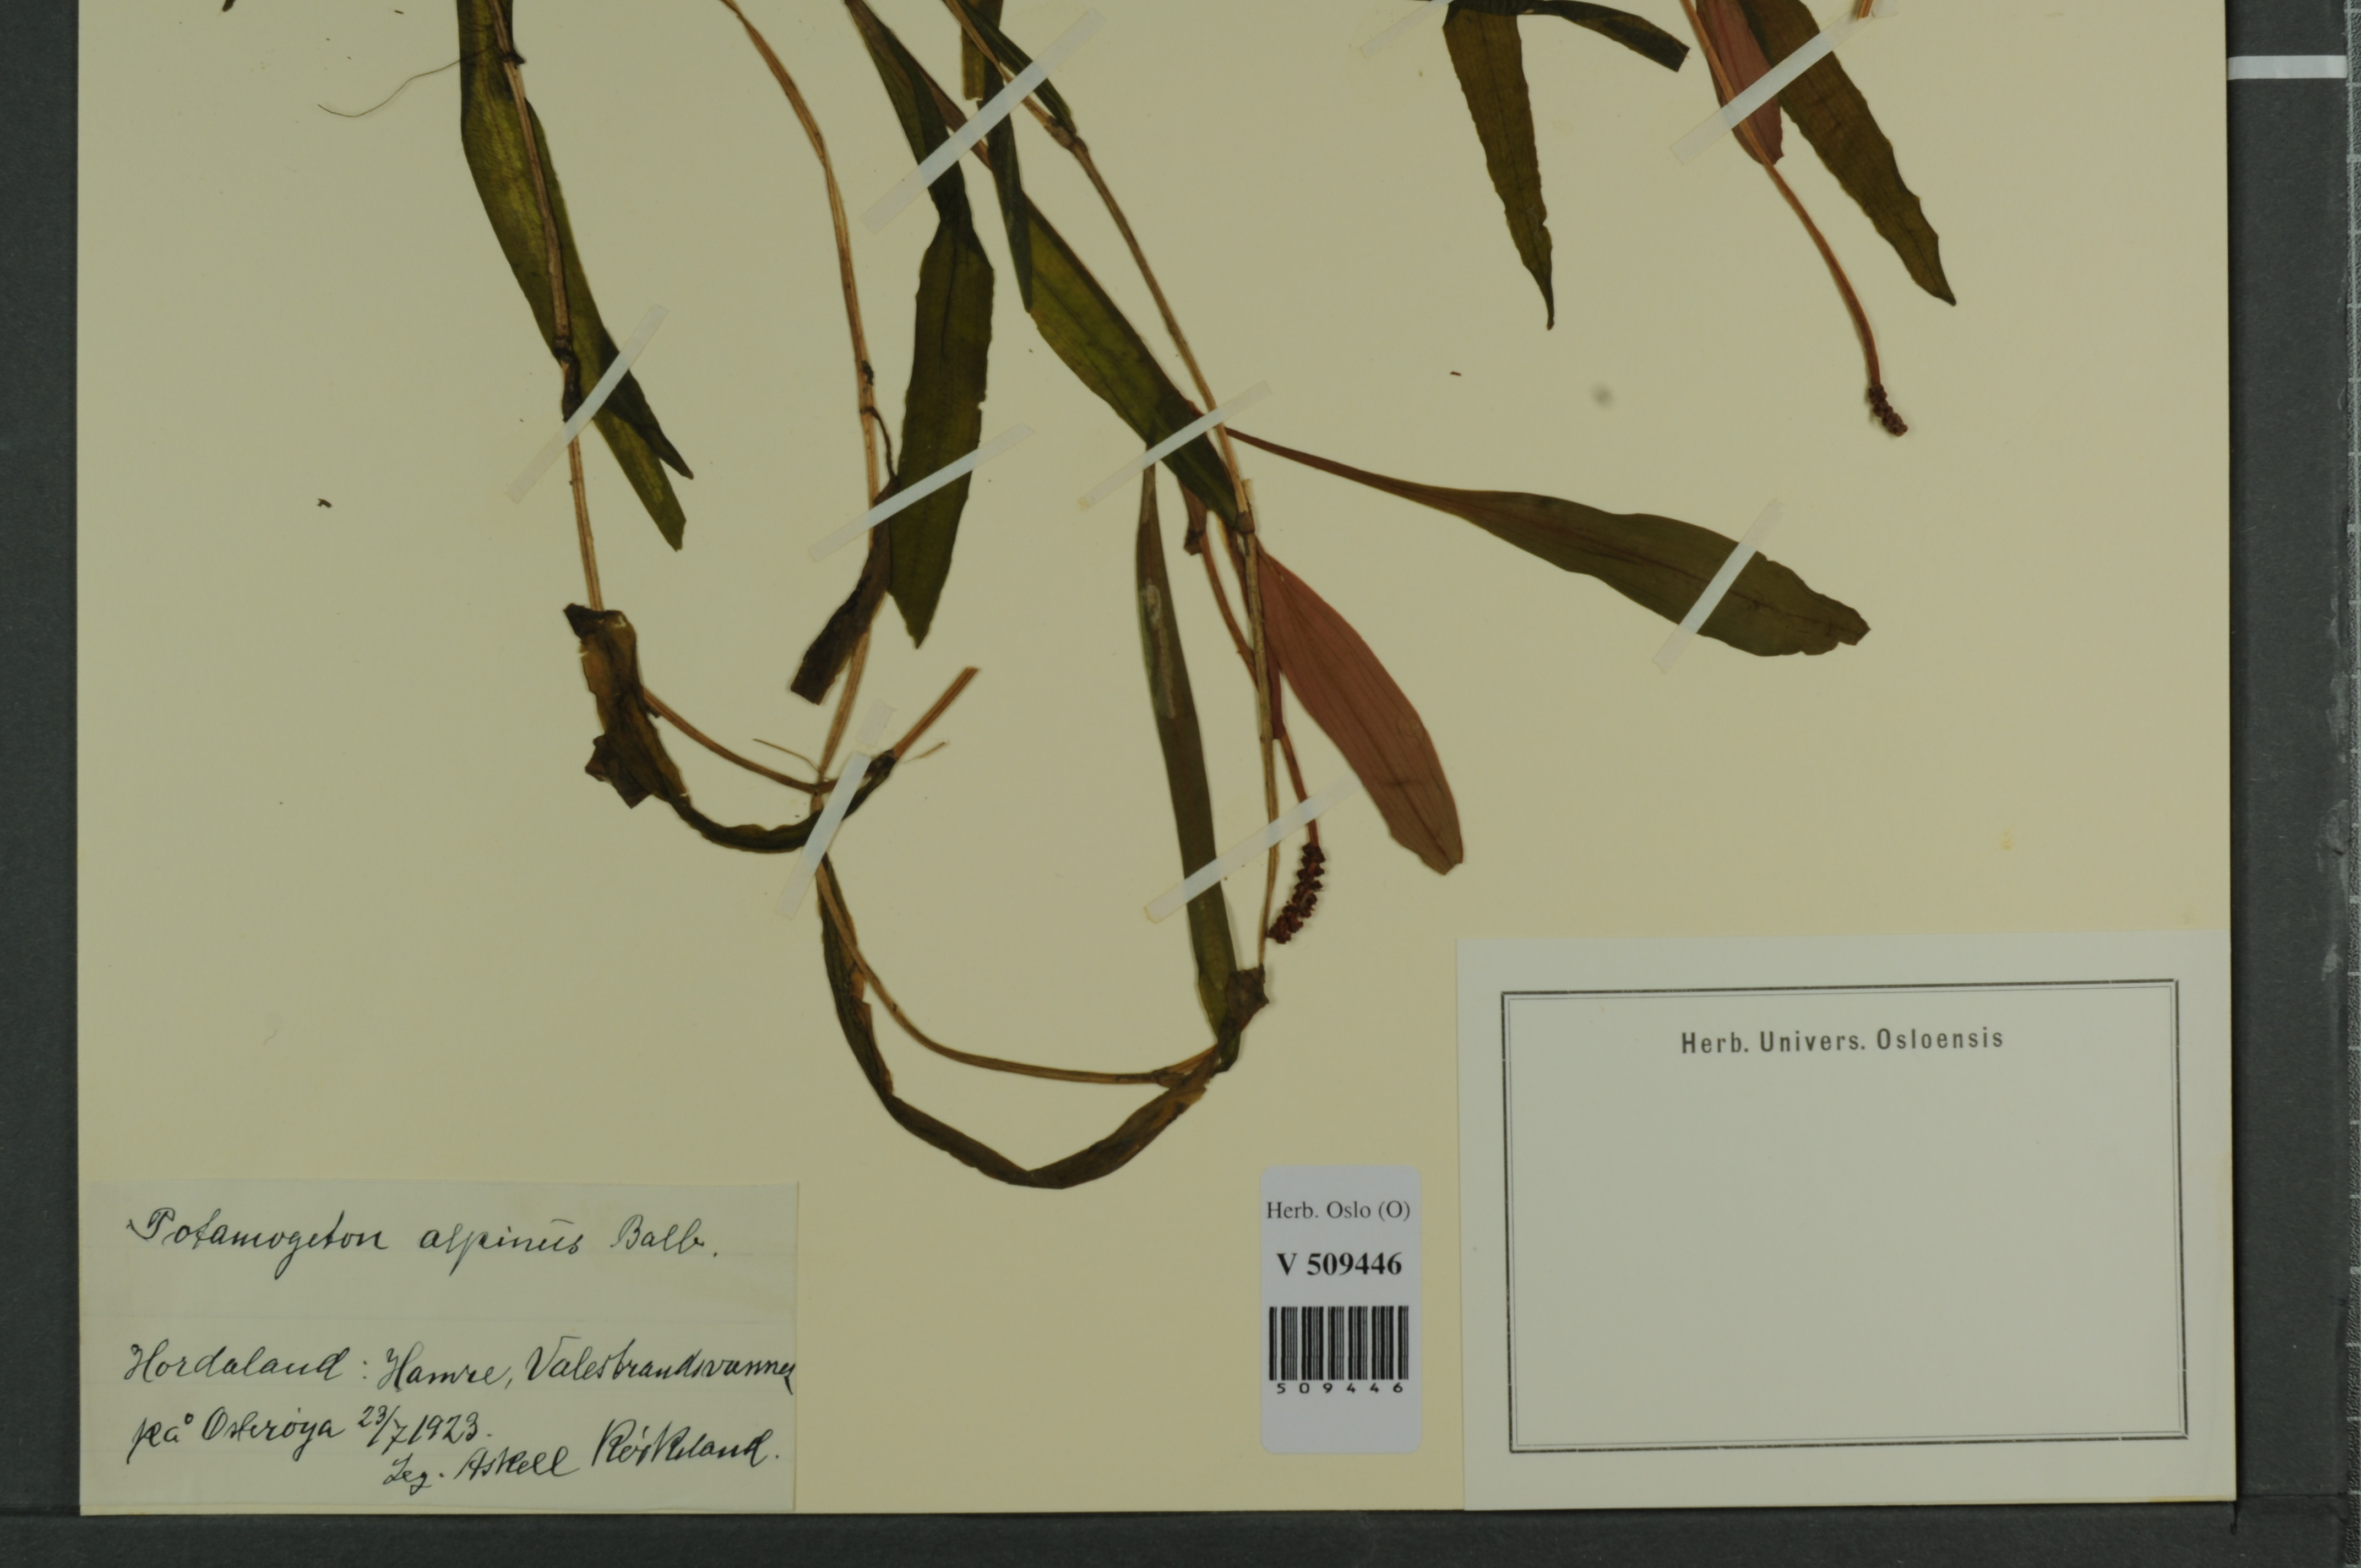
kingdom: Plantae
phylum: Tracheophyta
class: Liliopsida
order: Alismatales
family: Potamogetonaceae
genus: Potamogeton
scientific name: Potamogeton alpinus
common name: Red pondweed
